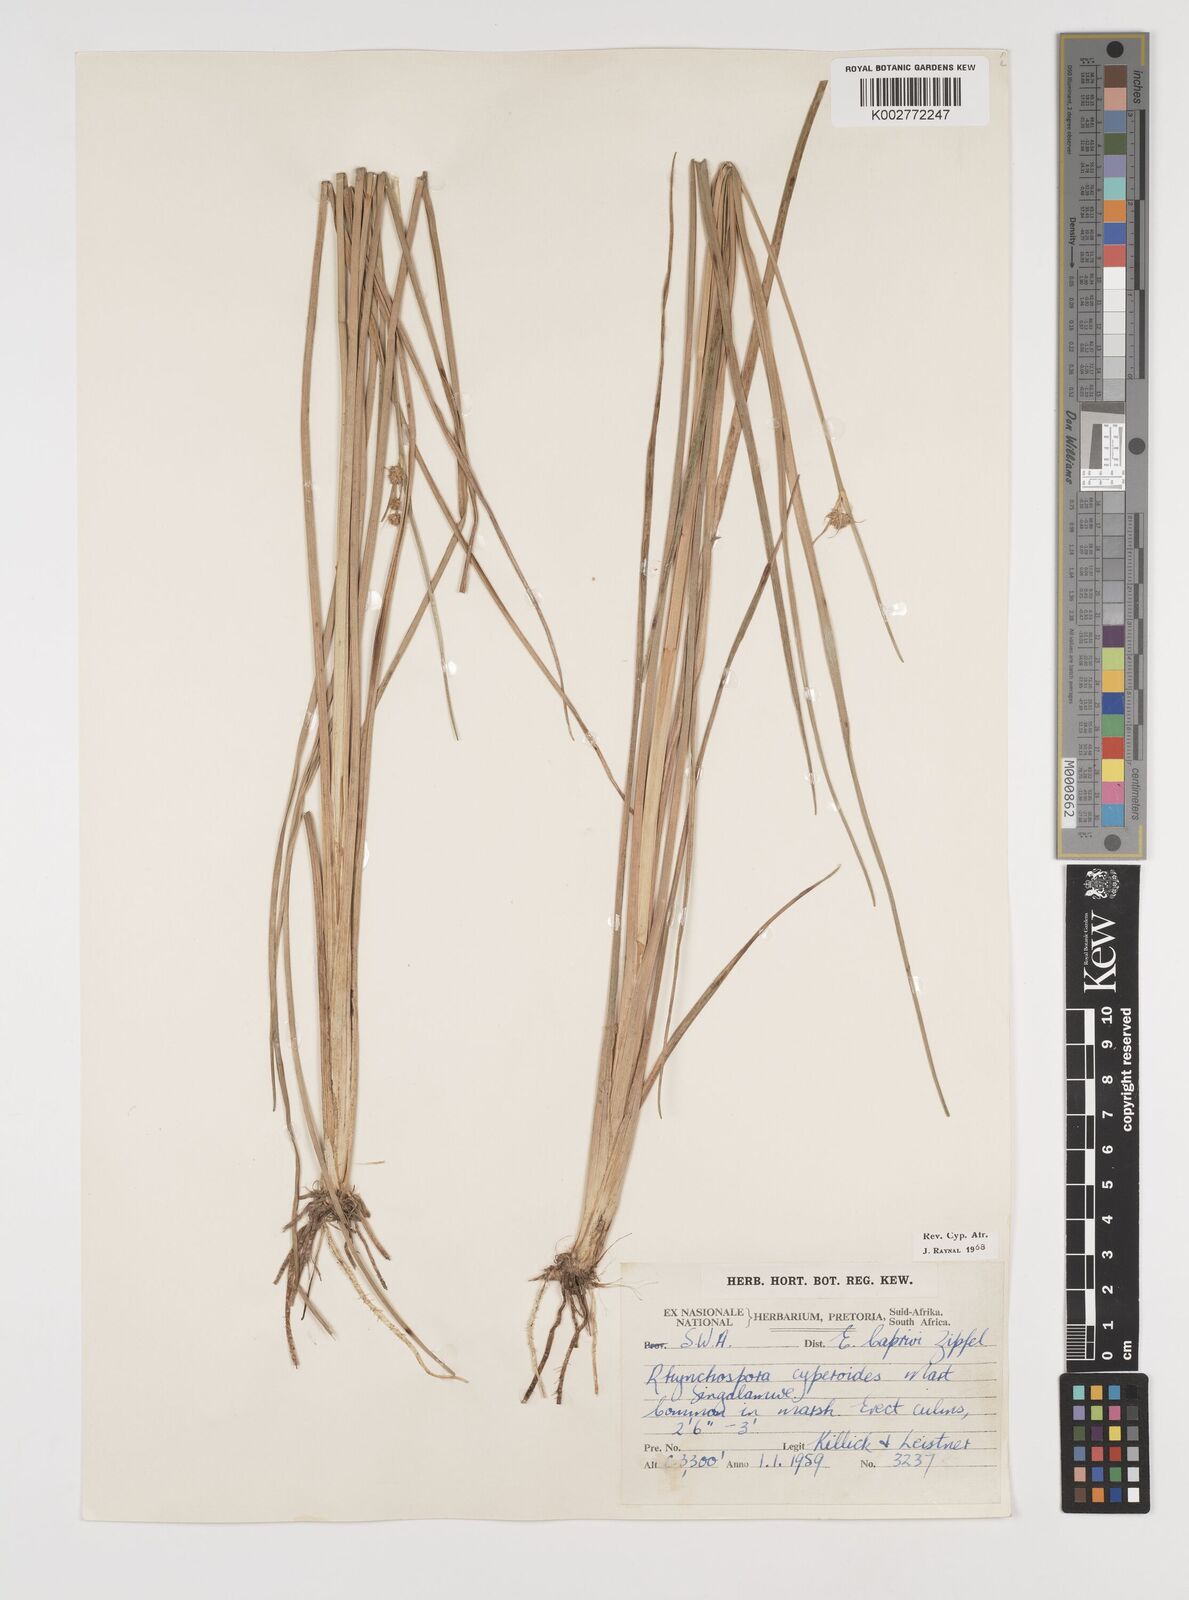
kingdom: Plantae
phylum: Tracheophyta
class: Liliopsida
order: Poales
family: Cyperaceae
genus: Rhynchospora
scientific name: Rhynchospora holoschoenoides
